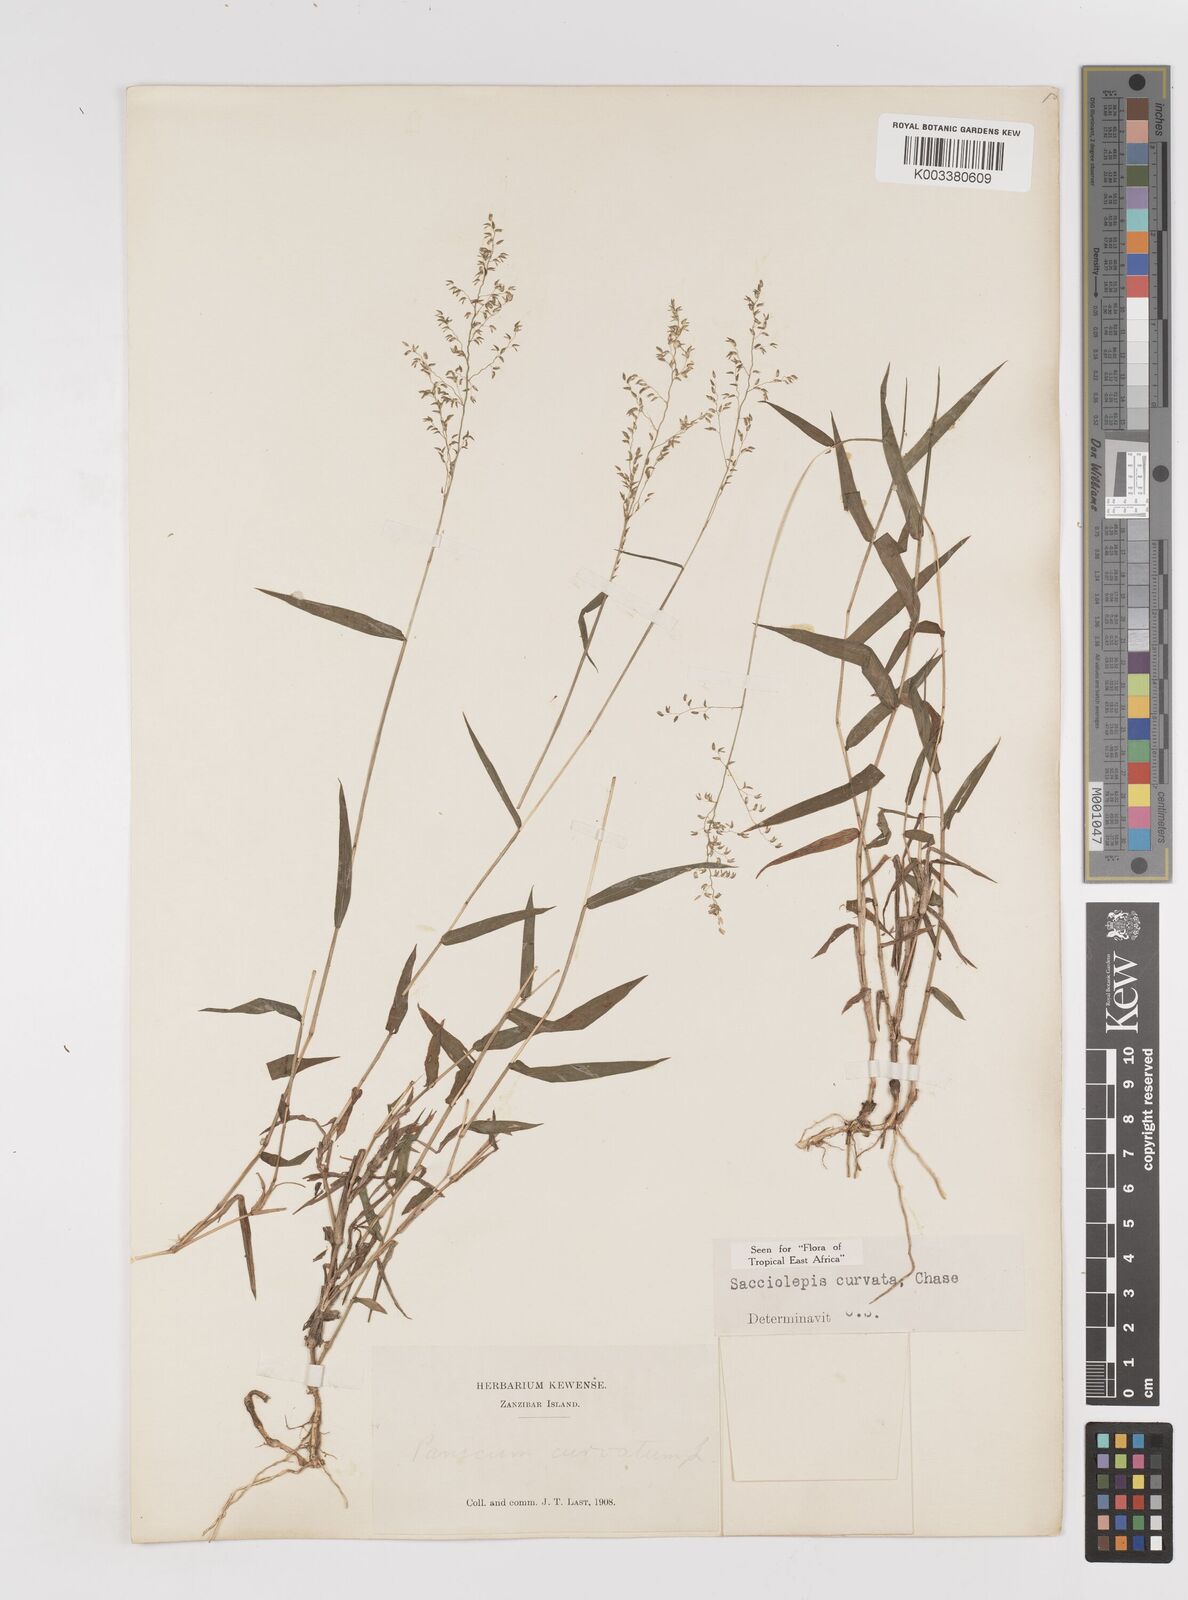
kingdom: Plantae
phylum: Tracheophyta
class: Liliopsida
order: Poales
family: Poaceae
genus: Sacciolepis
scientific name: Sacciolepis curvata
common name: Forest hood grass
